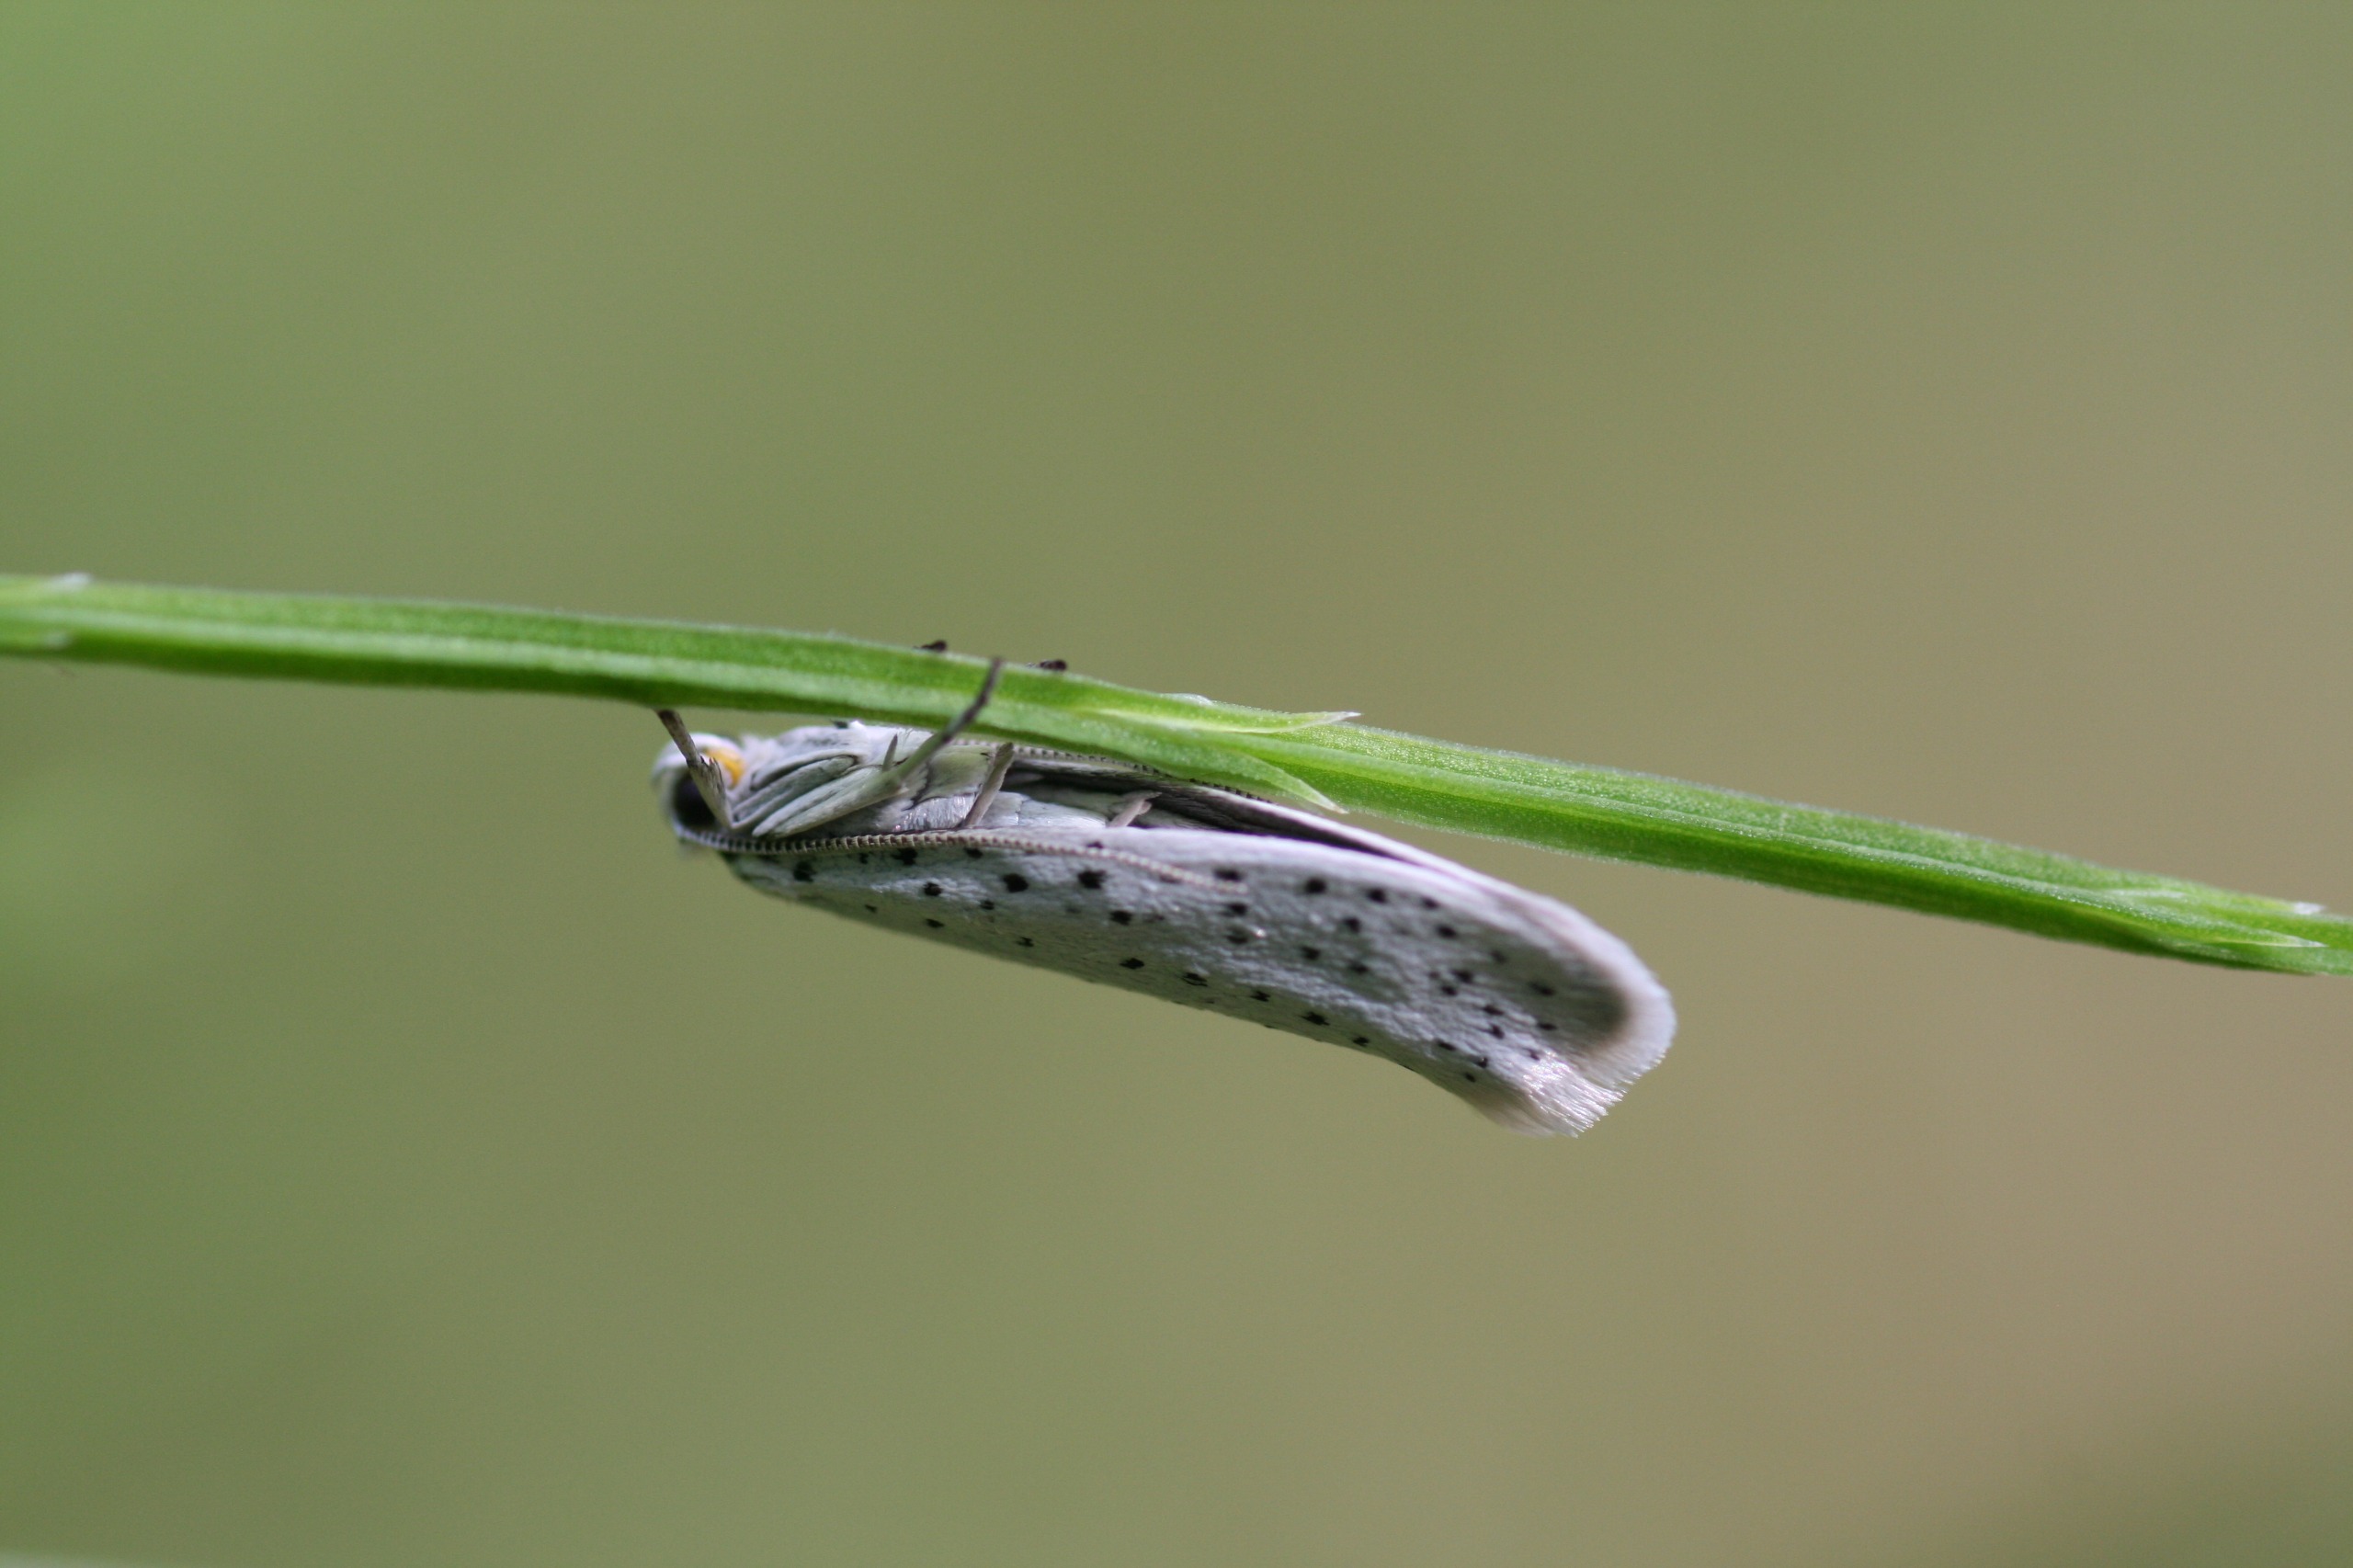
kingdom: Animalia
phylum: Arthropoda
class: Insecta
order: Lepidoptera
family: Yponomeutidae
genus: Yponomeuta
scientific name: Yponomeuta evonymella
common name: Hægspindemøl
